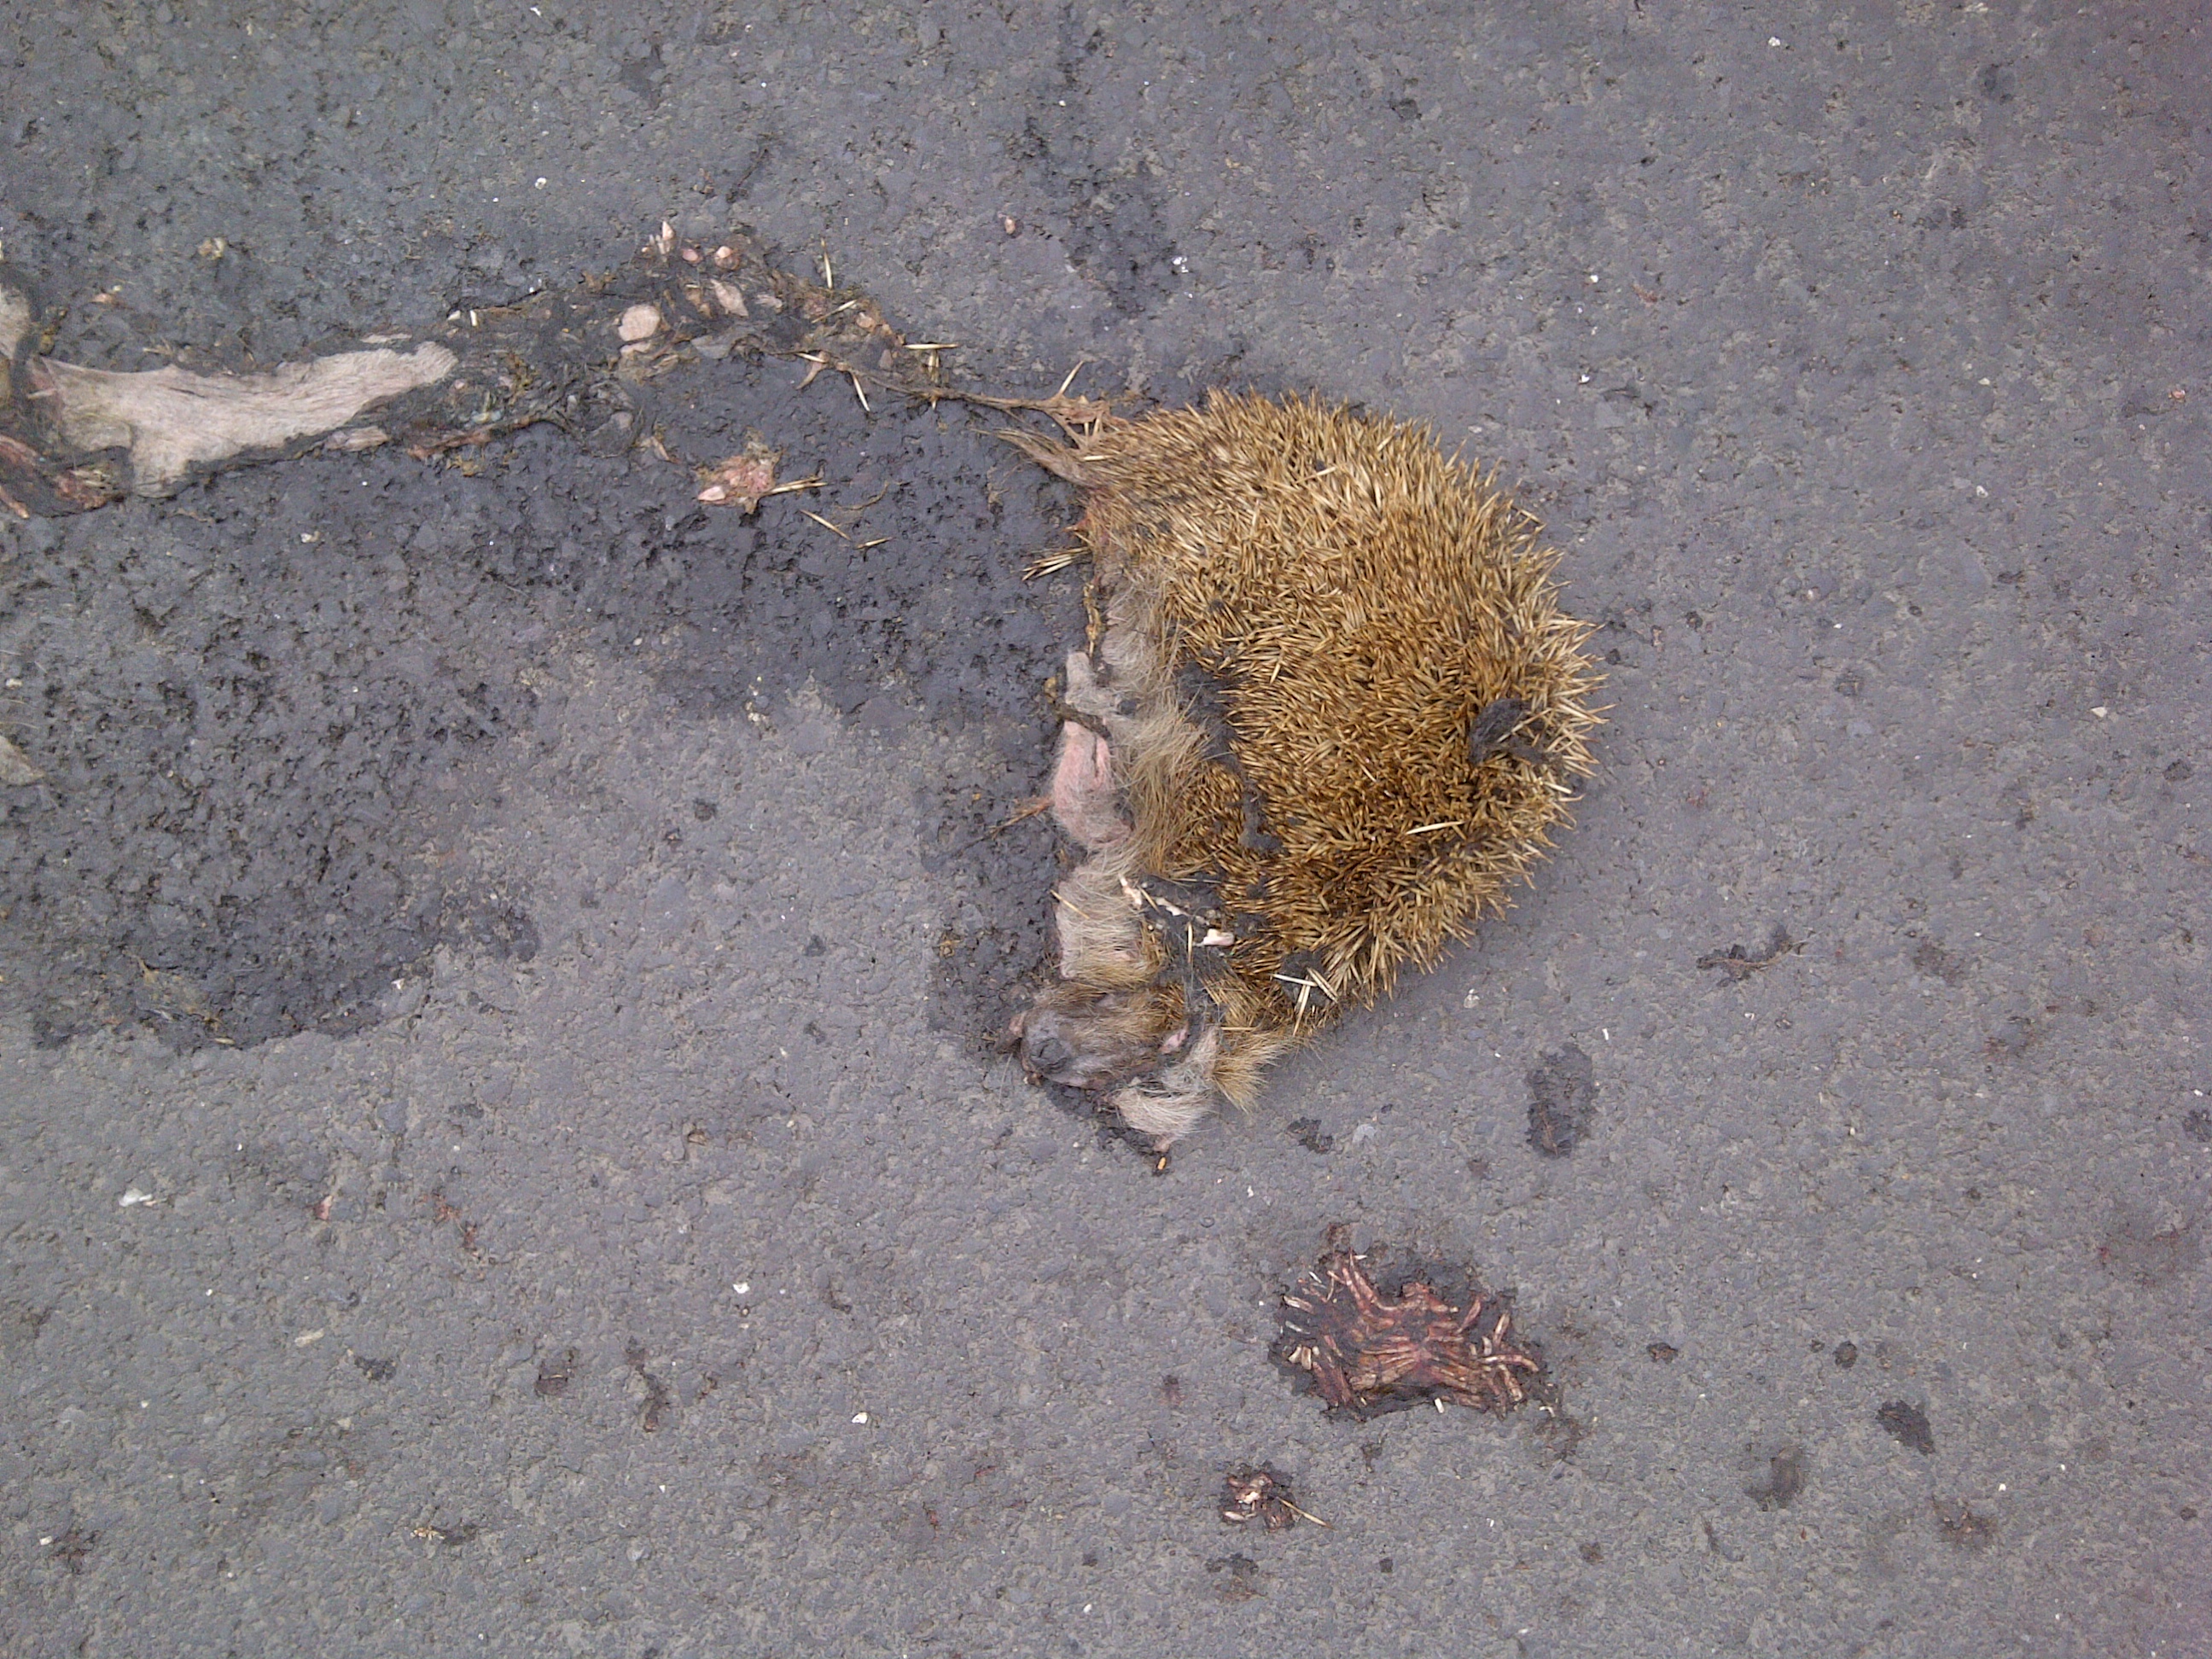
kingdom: Animalia
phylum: Chordata
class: Mammalia
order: Erinaceomorpha
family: Erinaceidae
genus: Erinaceus
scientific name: Erinaceus
